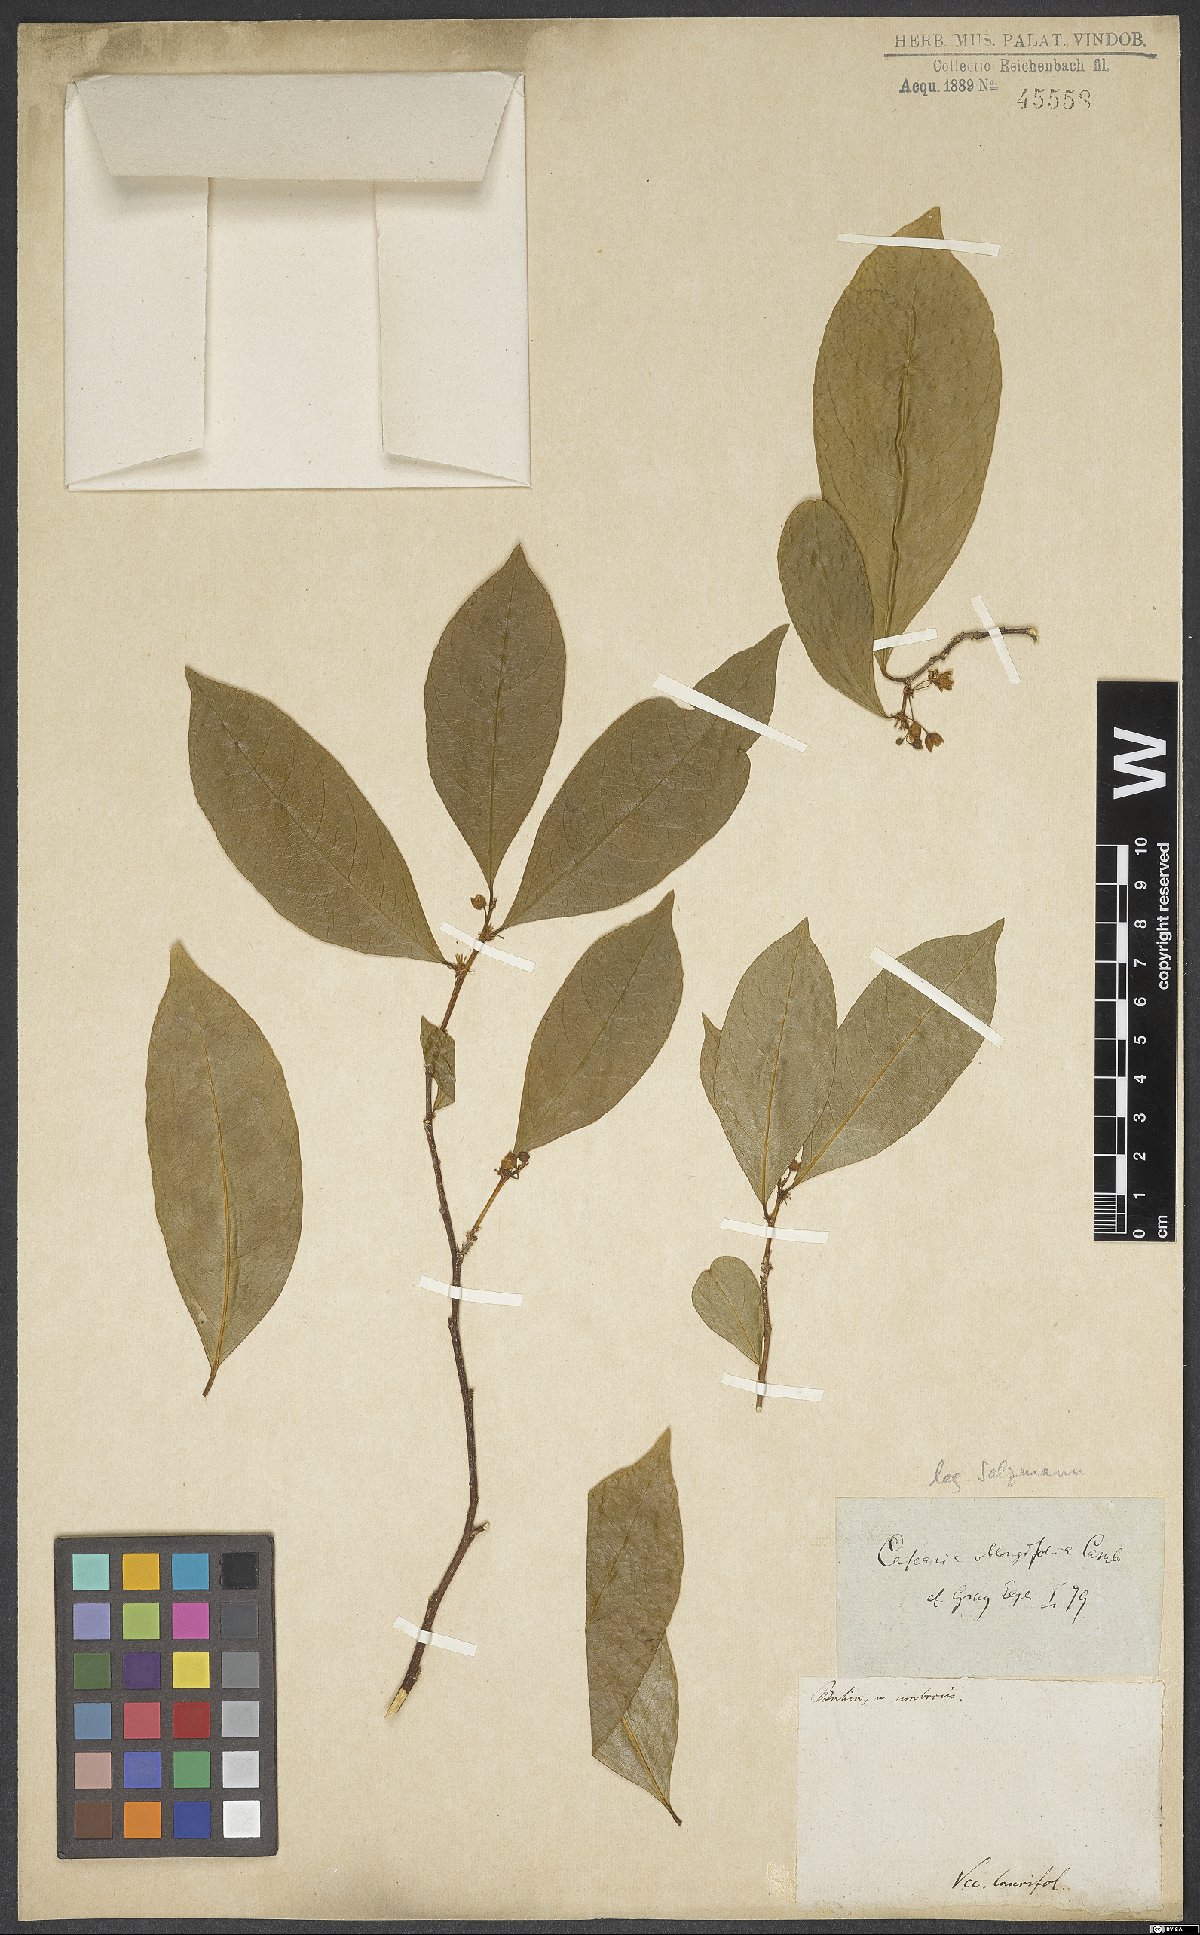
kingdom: Plantae
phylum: Tracheophyta
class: Magnoliopsida
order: Malpighiales
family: Salicaceae
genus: Casearia
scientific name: Casearia oblongifolia
